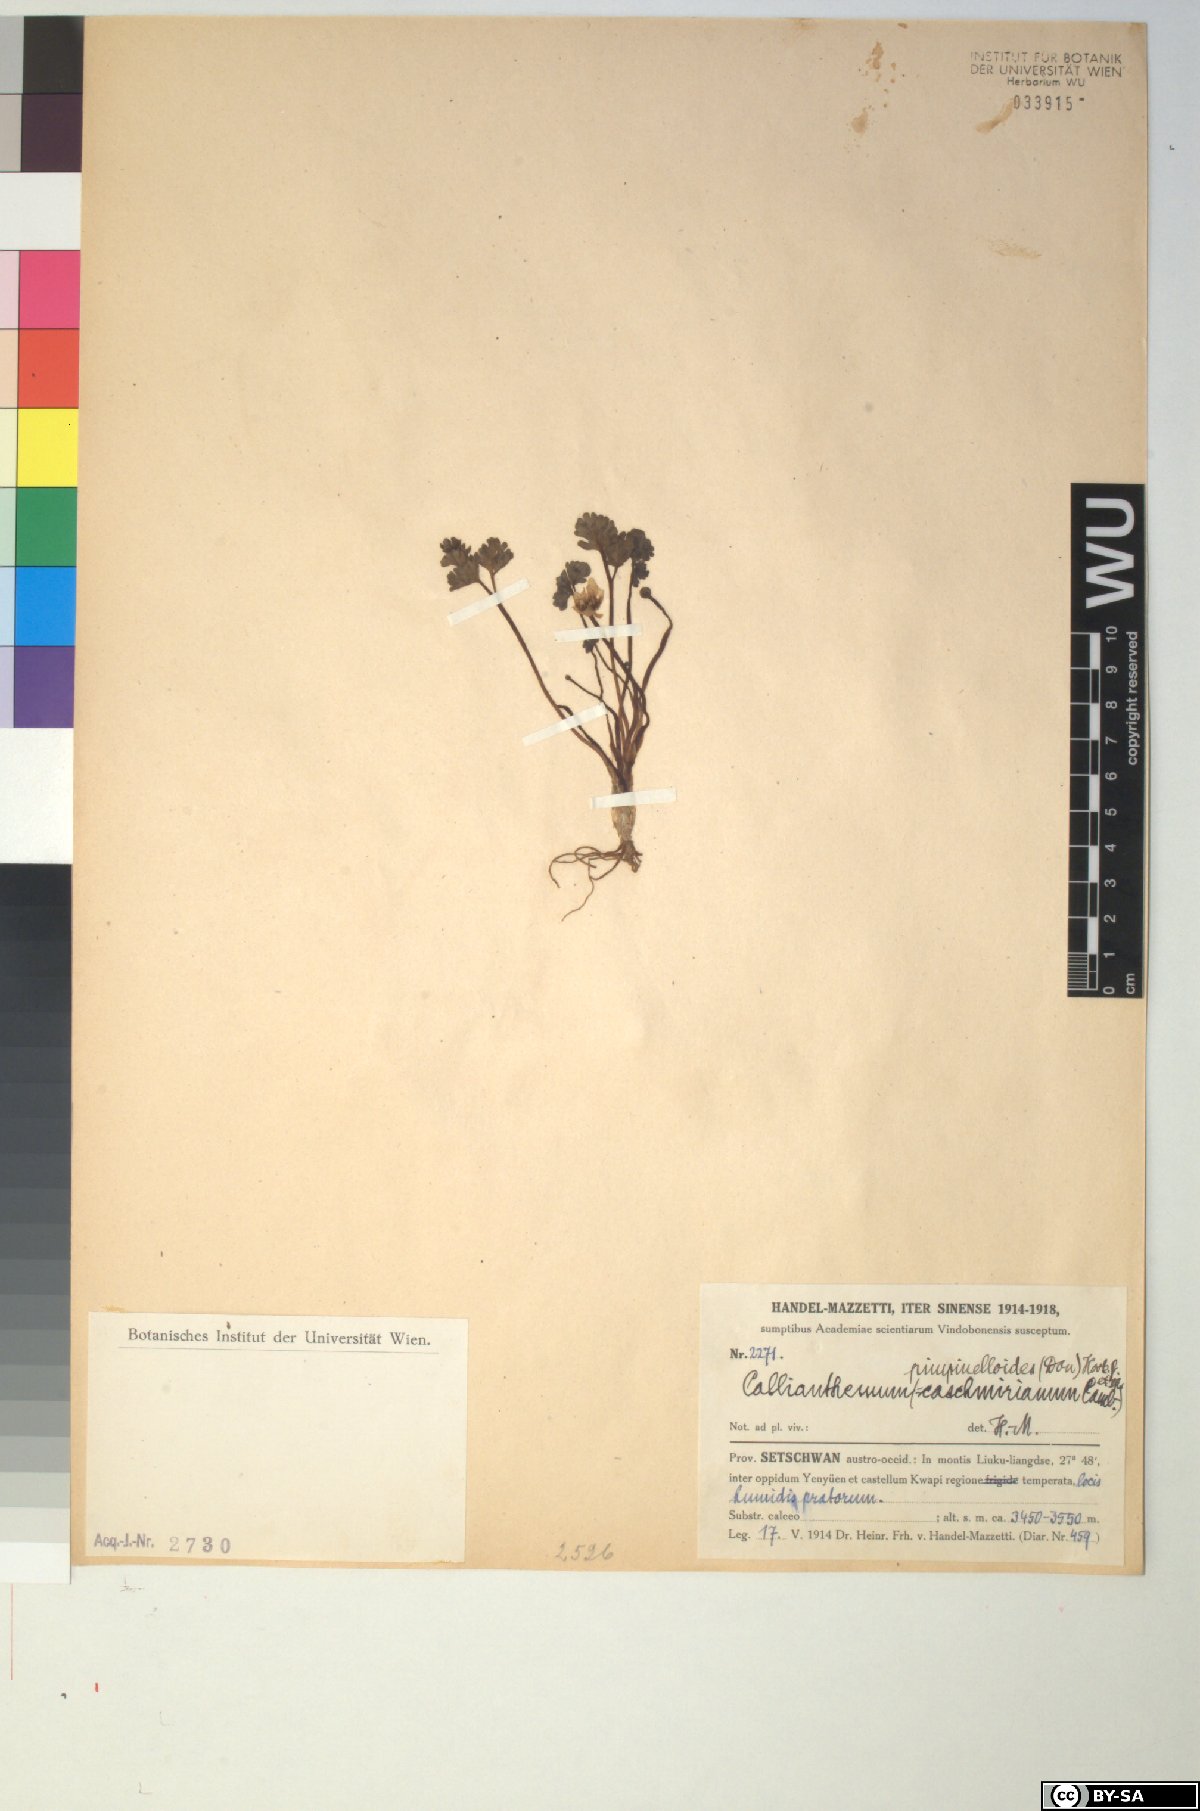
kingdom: Plantae
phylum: Tracheophyta
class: Magnoliopsida
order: Ranunculales
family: Ranunculaceae
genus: Callianthemum
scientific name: Callianthemum pimpinelloides
